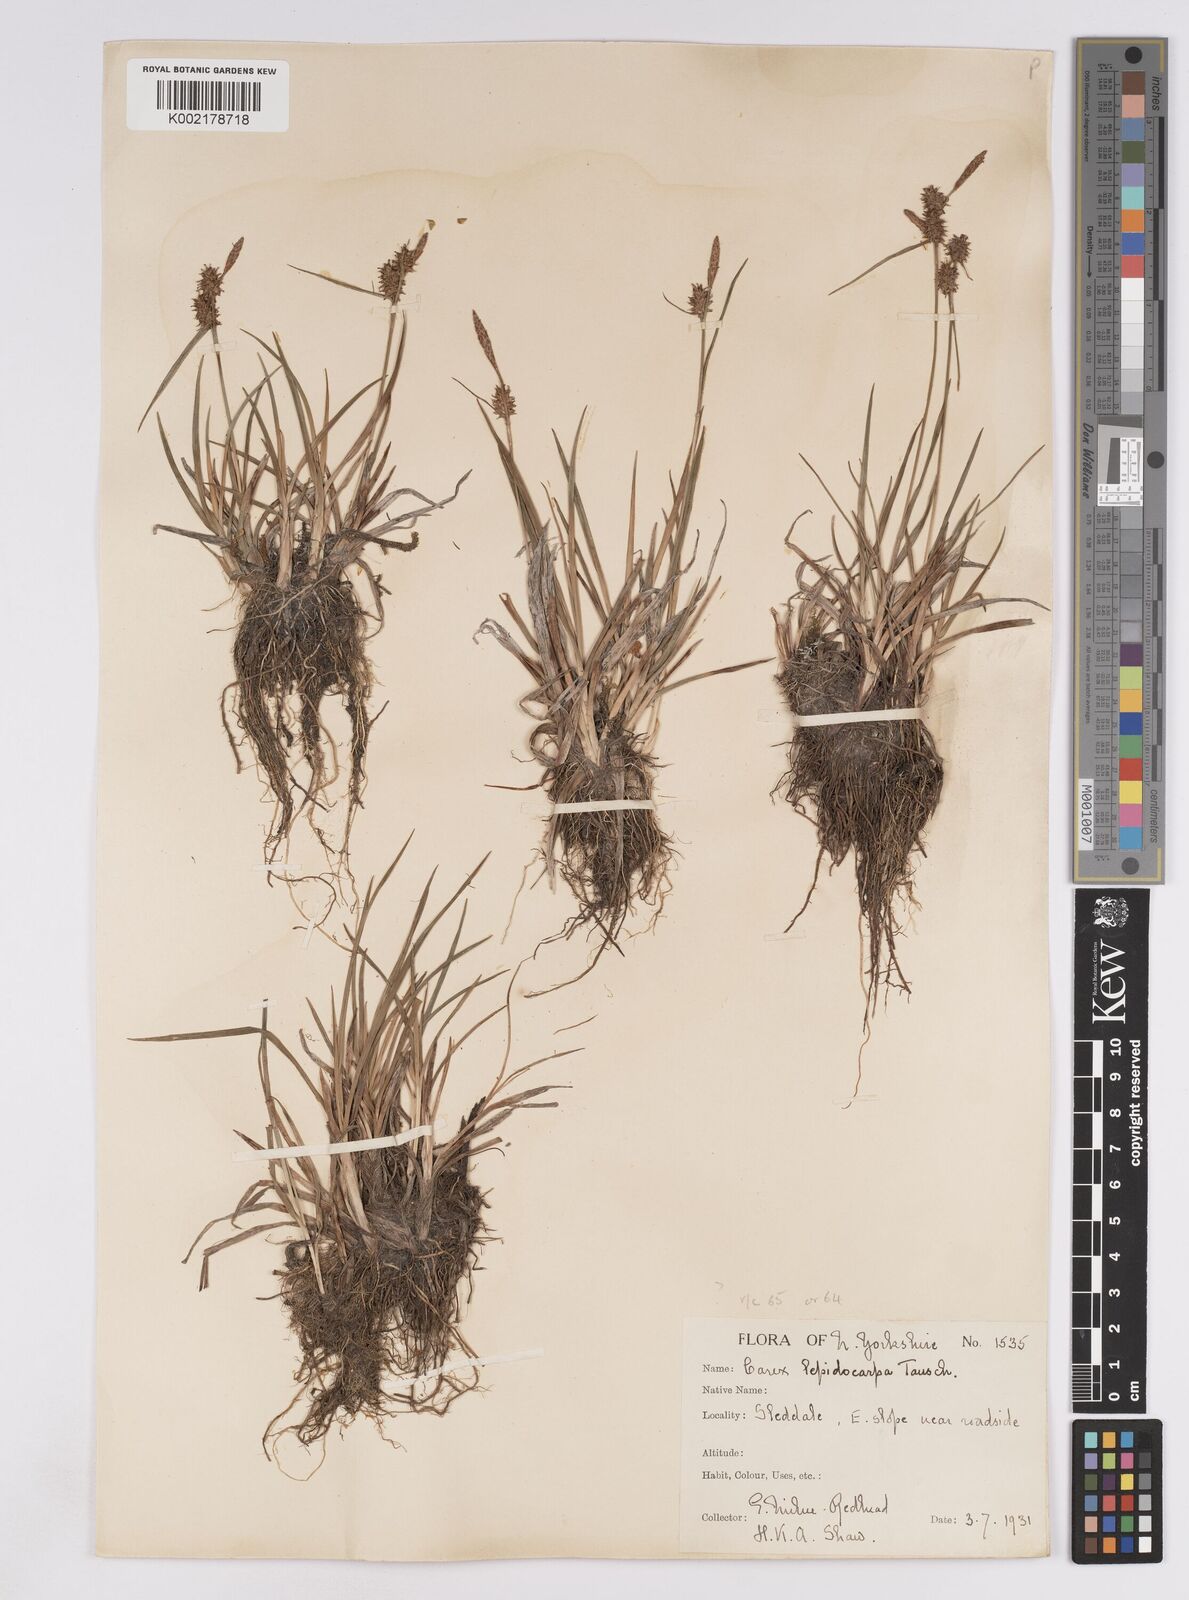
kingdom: Plantae
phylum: Tracheophyta
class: Liliopsida
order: Poales
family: Cyperaceae
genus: Carex
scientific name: Carex lepidocarpa
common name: Long-stalked yellow-sedge
